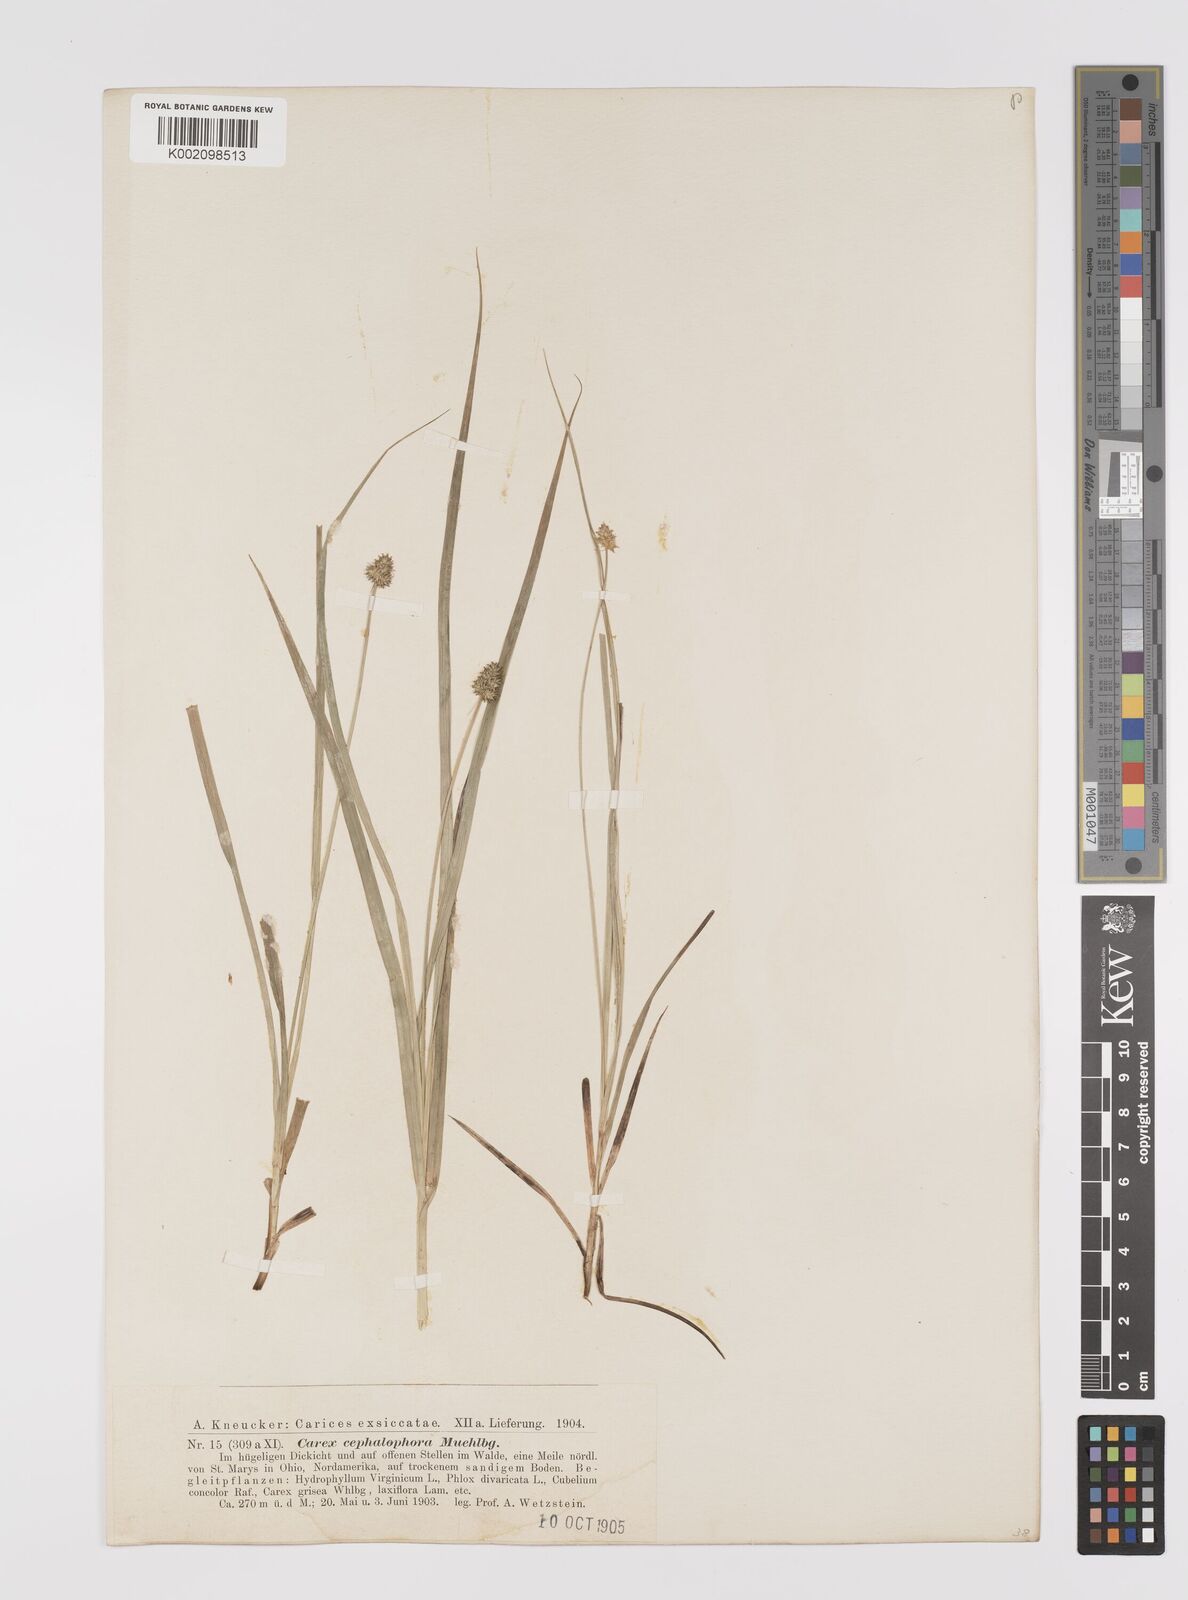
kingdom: Plantae
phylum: Tracheophyta
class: Liliopsida
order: Poales
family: Cyperaceae
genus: Carex
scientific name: Carex cephalophora
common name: Oval-headed sedge
